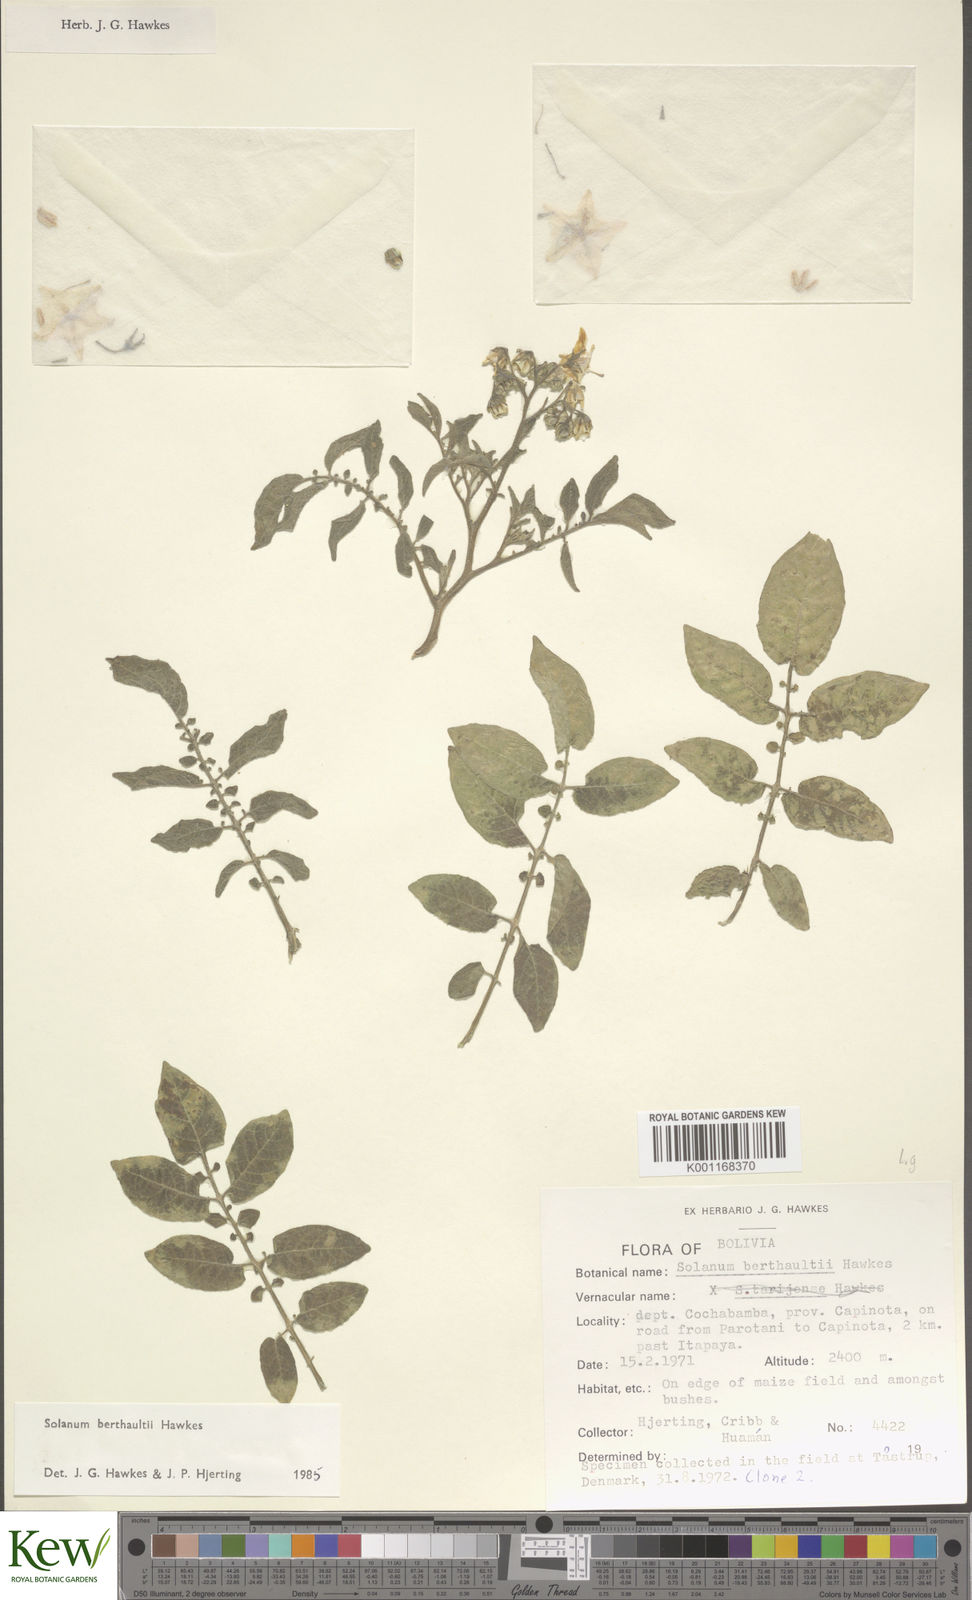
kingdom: Plantae
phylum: Tracheophyta
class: Magnoliopsida
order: Solanales
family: Solanaceae
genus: Solanum
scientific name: Solanum berthaultii
